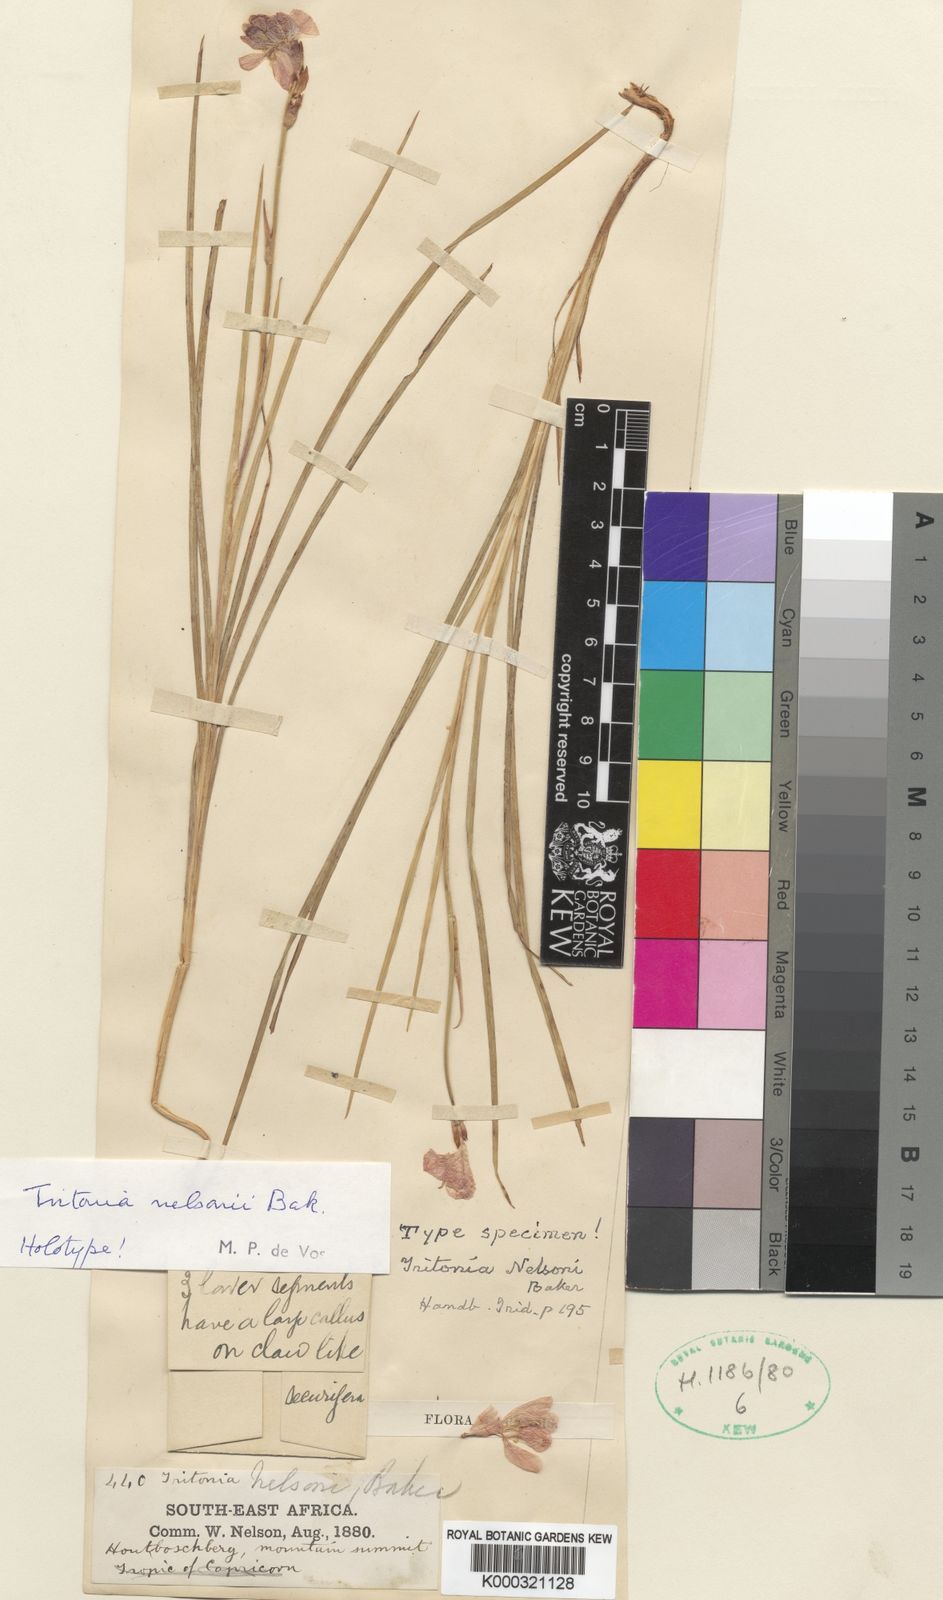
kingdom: Plantae
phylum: Tracheophyta
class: Liliopsida
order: Asparagales
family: Iridaceae
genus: Tritonia
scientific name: Tritonia nelsonii
